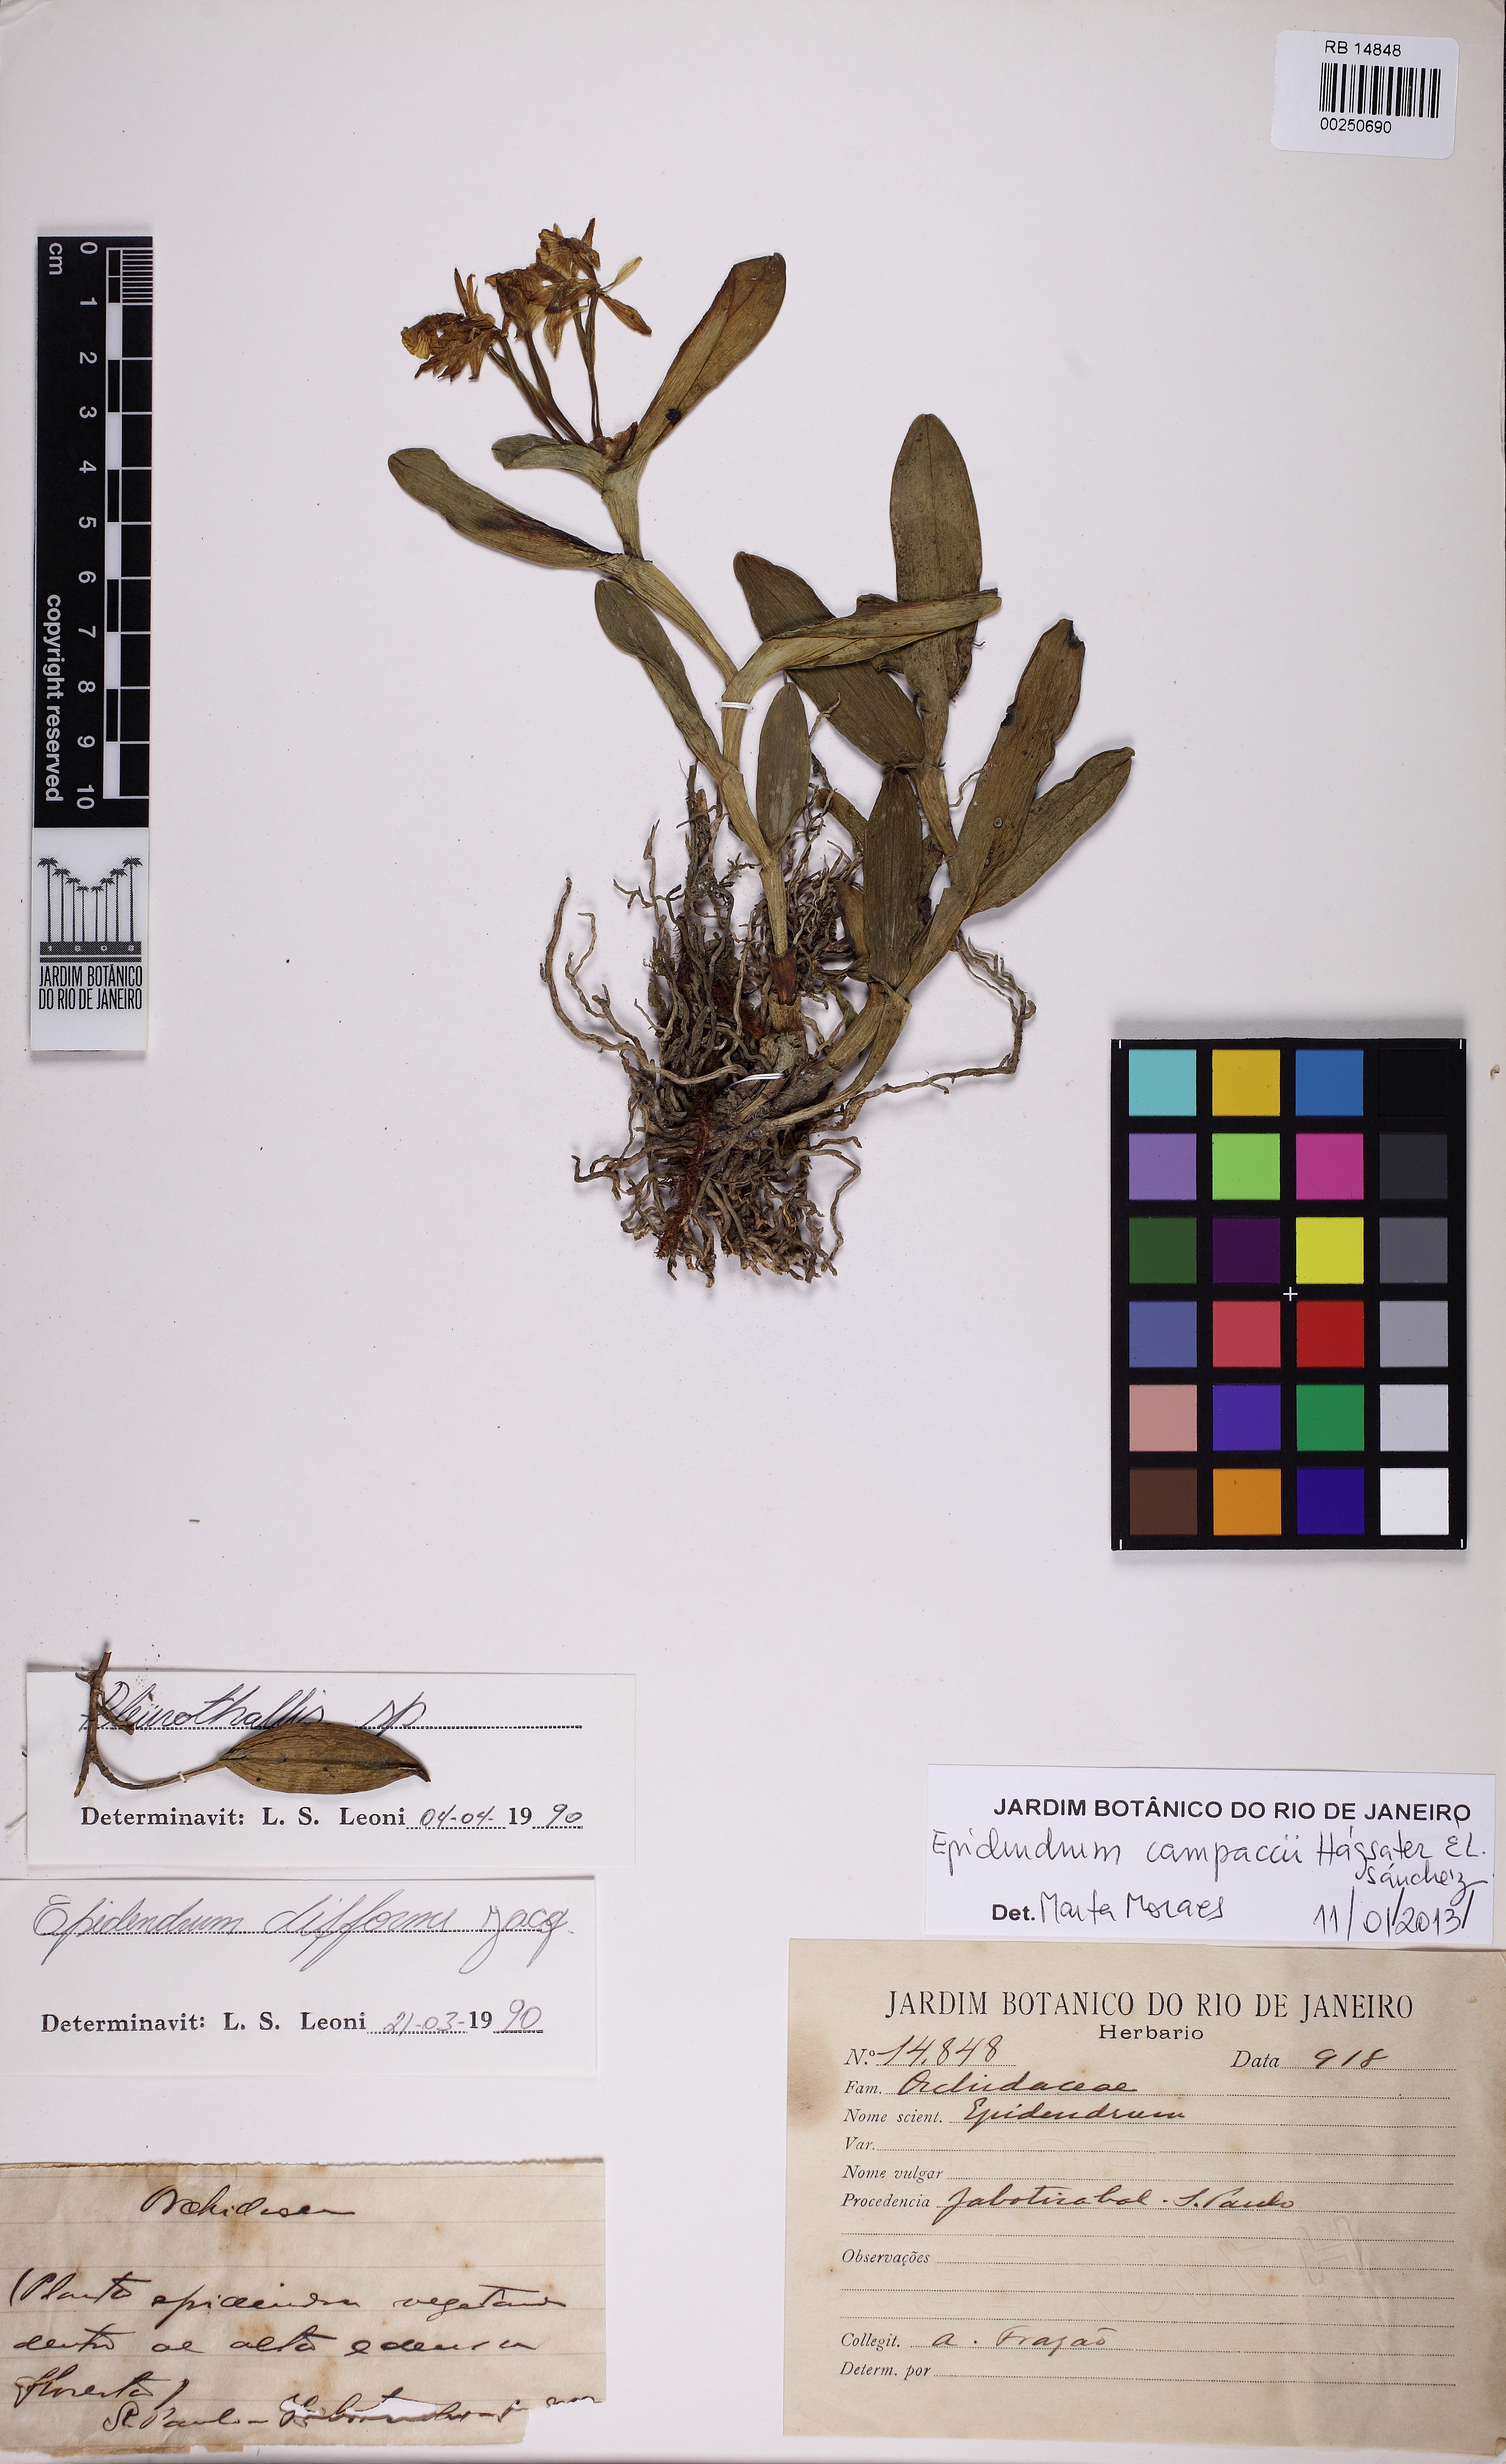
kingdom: Plantae
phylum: Tracheophyta
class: Liliopsida
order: Asparagales
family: Orchidaceae
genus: Epidendrum
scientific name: Epidendrum pseudodifforme
